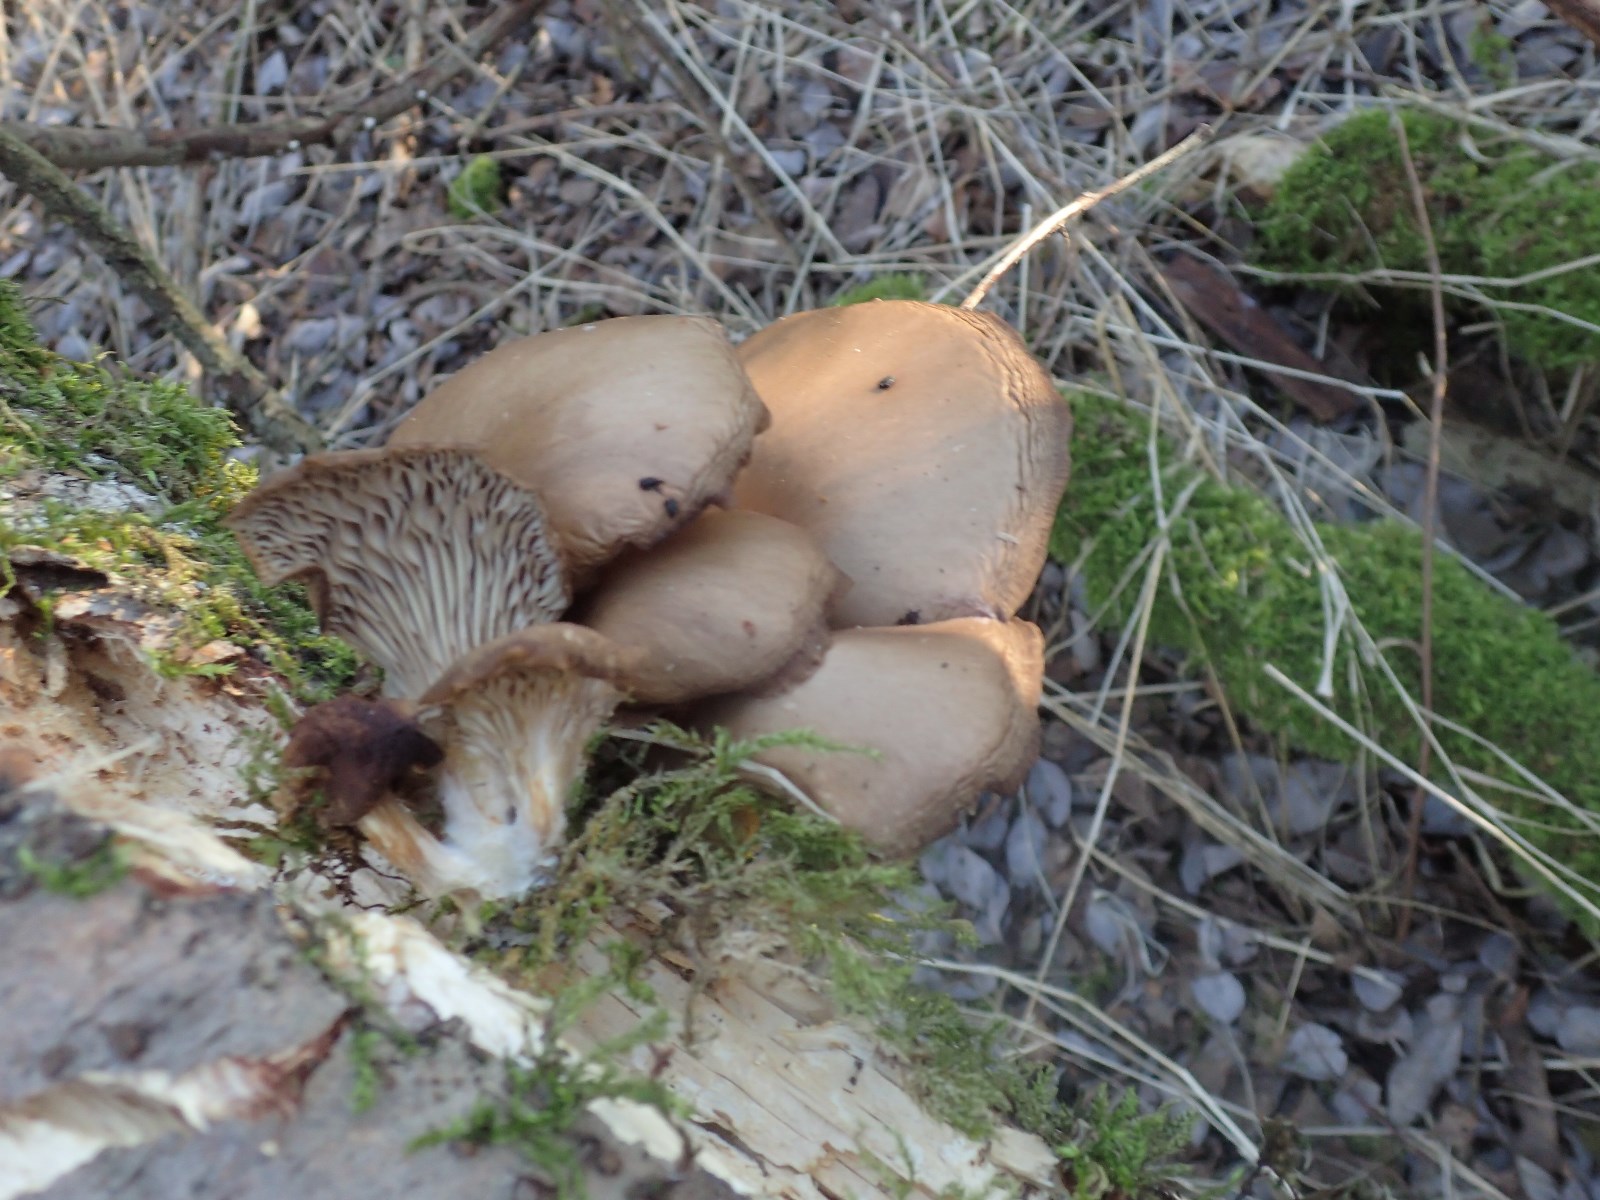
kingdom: Fungi
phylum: Basidiomycota
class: Agaricomycetes
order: Agaricales
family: Pleurotaceae
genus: Pleurotus
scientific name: Pleurotus ostreatus
